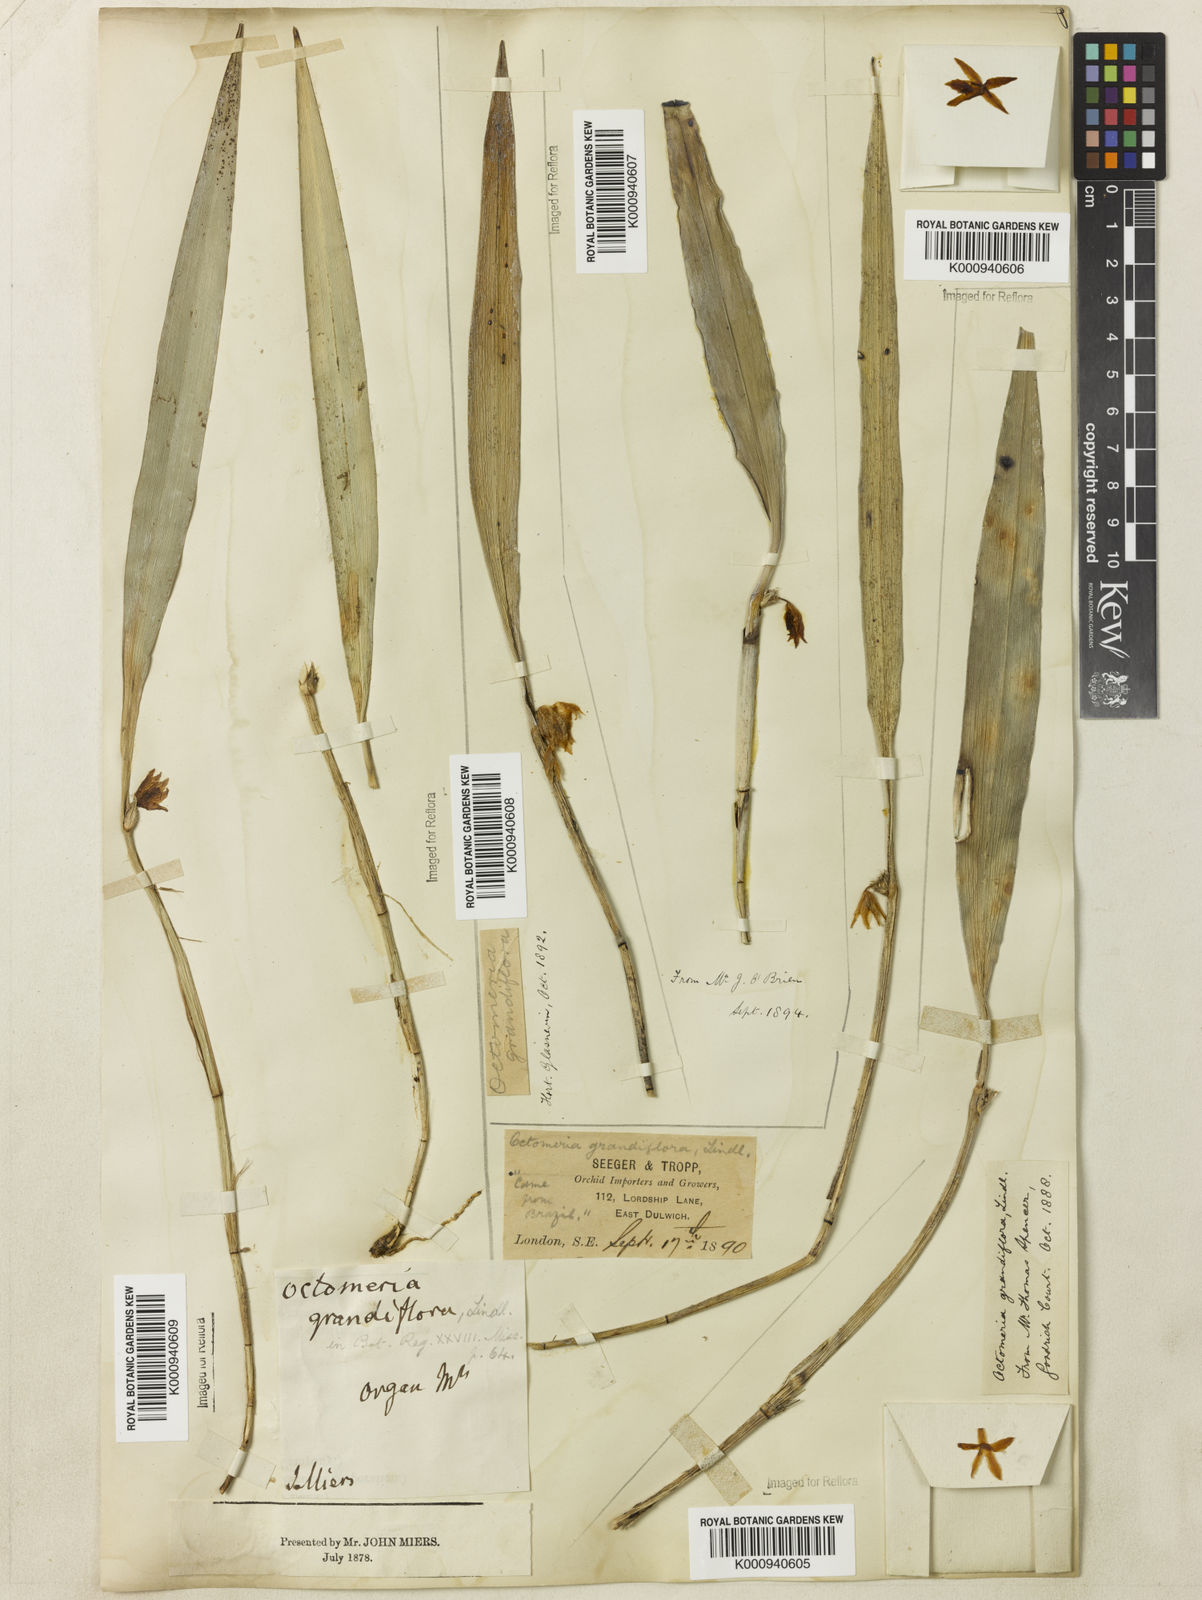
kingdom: Plantae
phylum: Tracheophyta
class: Liliopsida
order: Asparagales
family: Orchidaceae
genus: Octomeria
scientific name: Octomeria grandiflora
